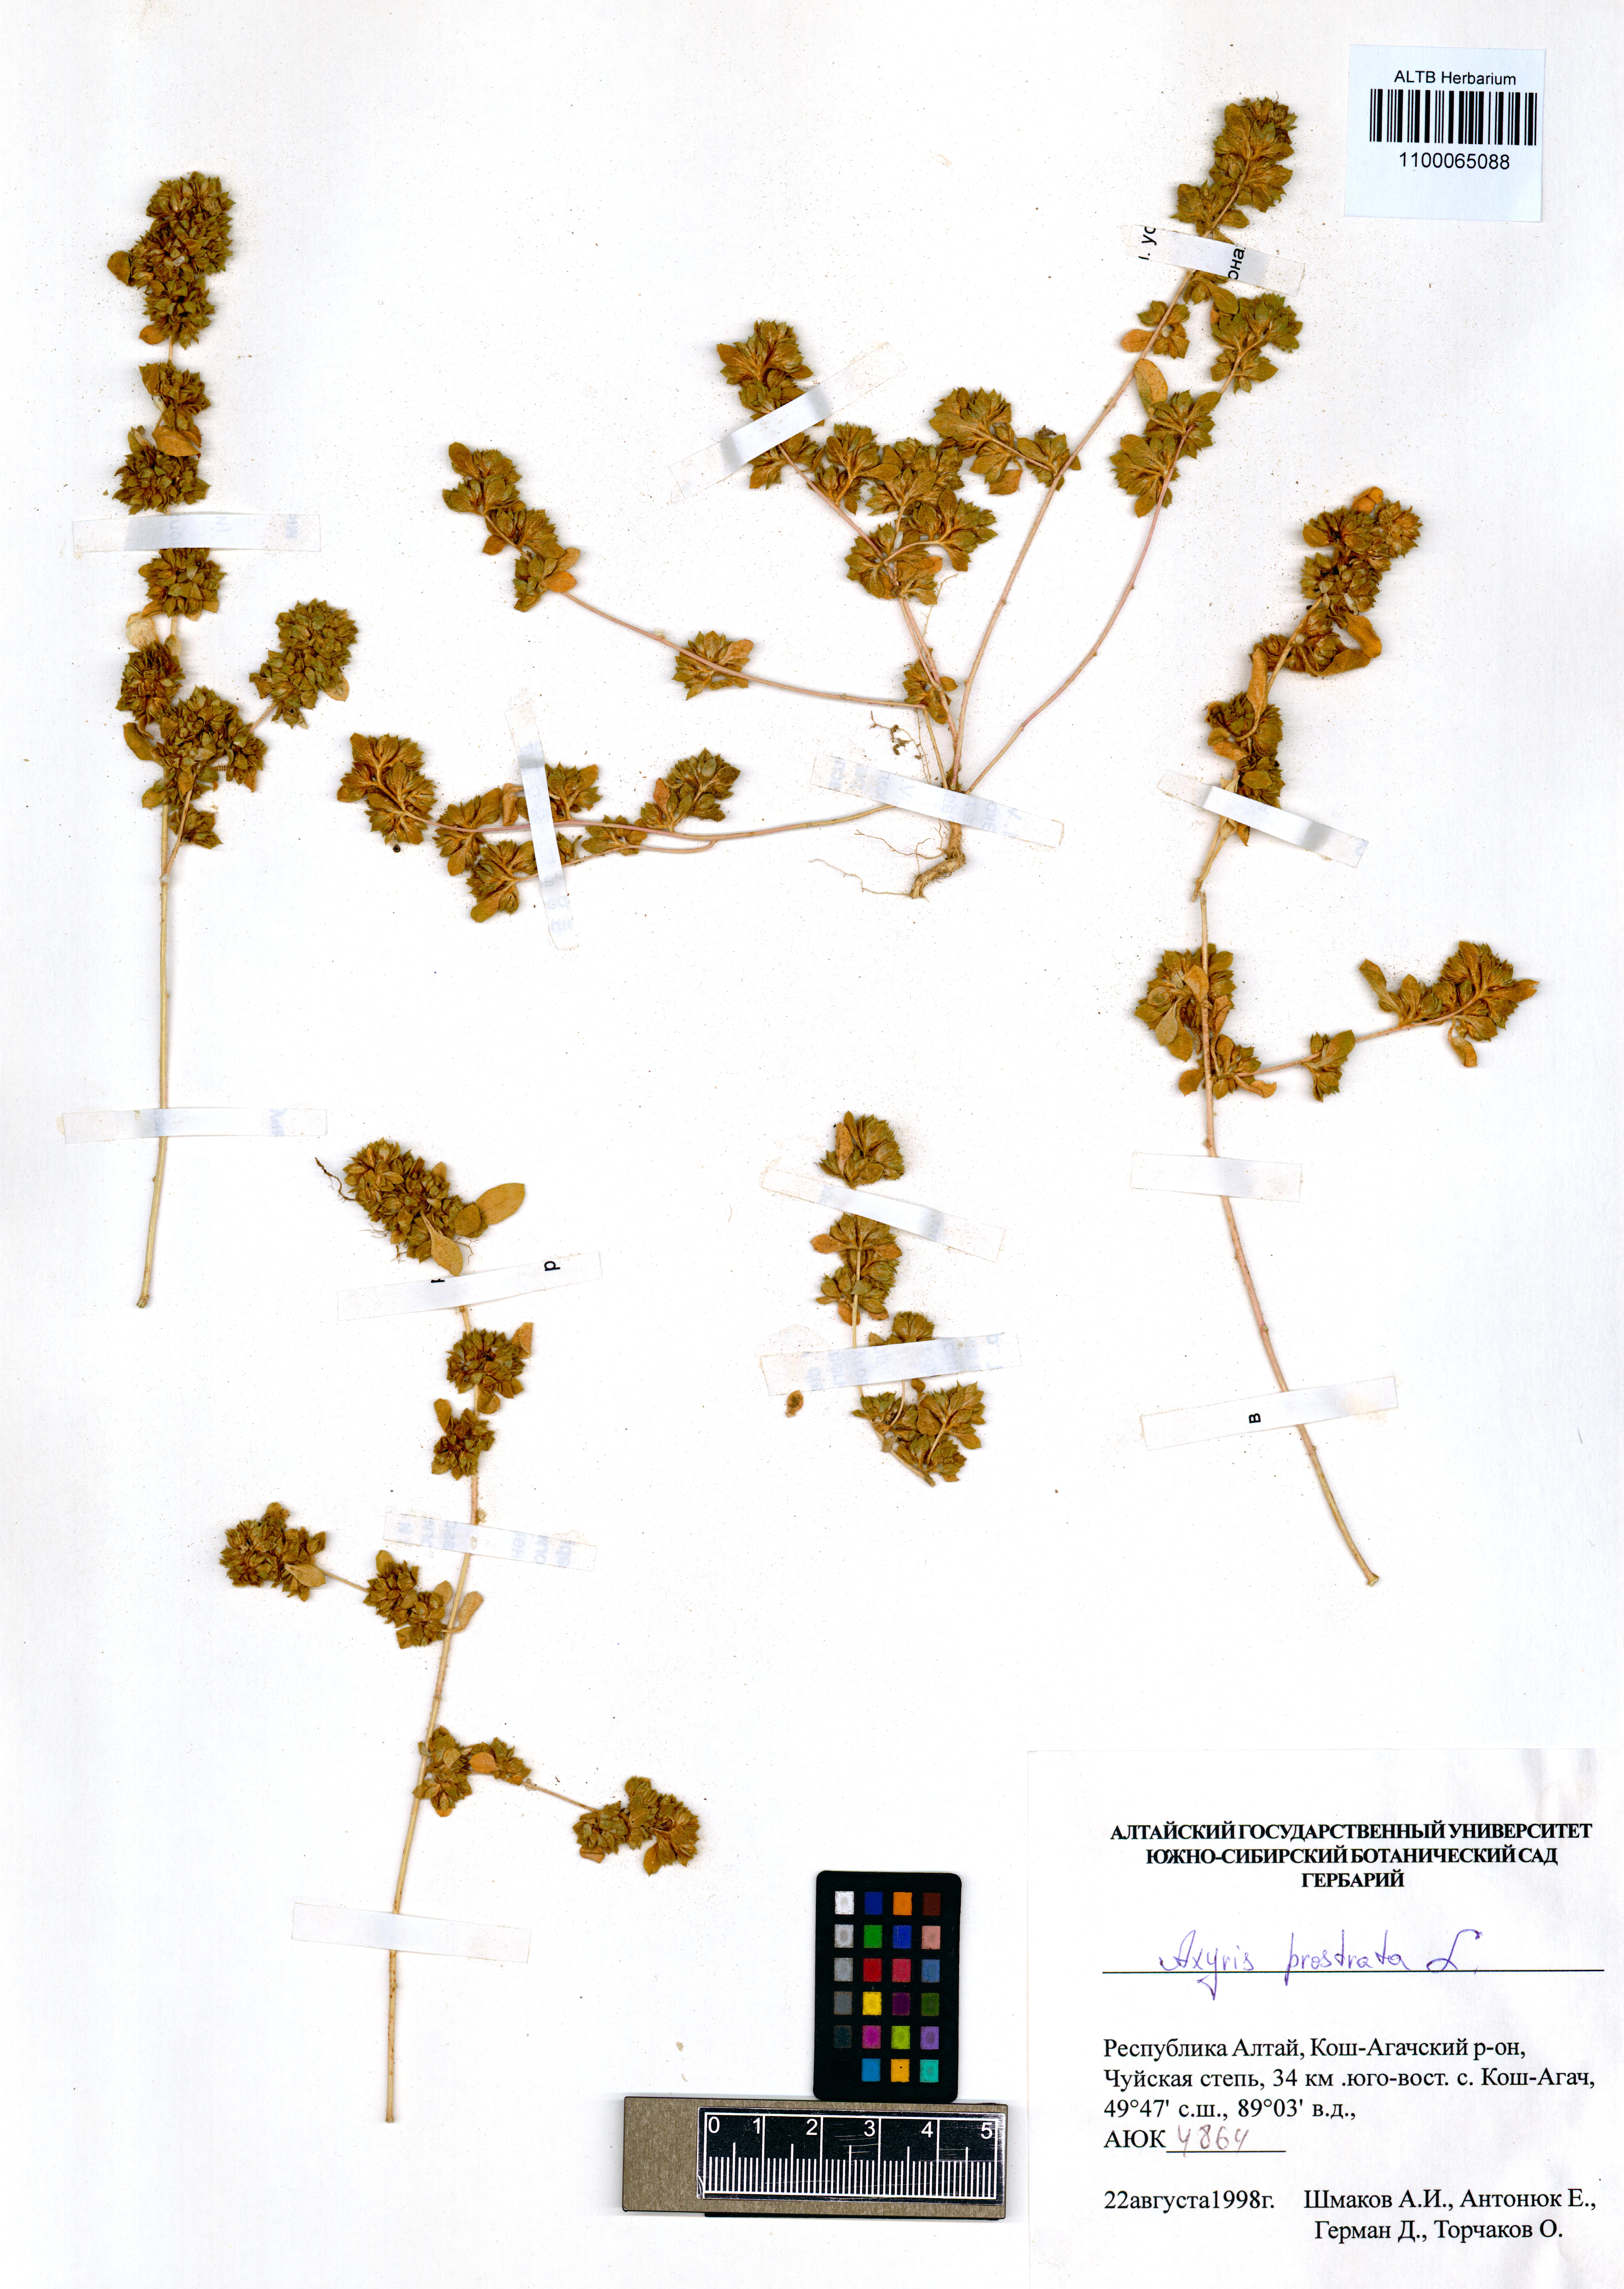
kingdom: Plantae
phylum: Tracheophyta
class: Magnoliopsida
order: Caryophyllales
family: Amaranthaceae
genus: Axyris
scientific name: Axyris prostrata
